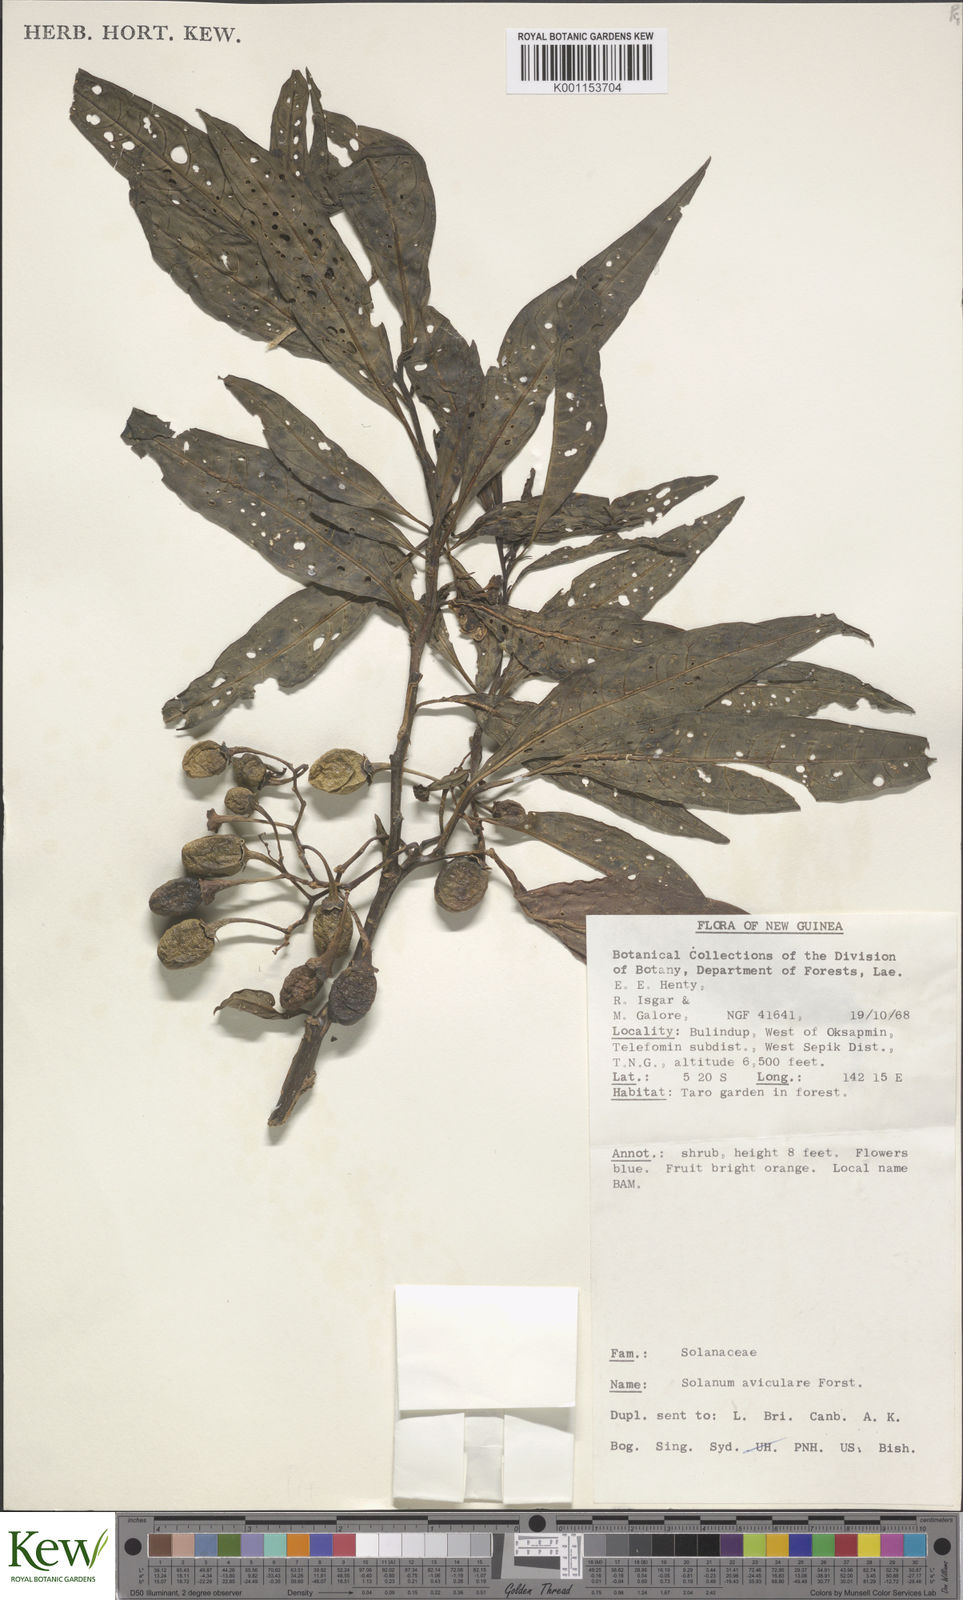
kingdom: Plantae
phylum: Tracheophyta
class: Magnoliopsida
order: Solanales
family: Solanaceae
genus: Solanum
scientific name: Solanum aviculare
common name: New zealand nightshade
